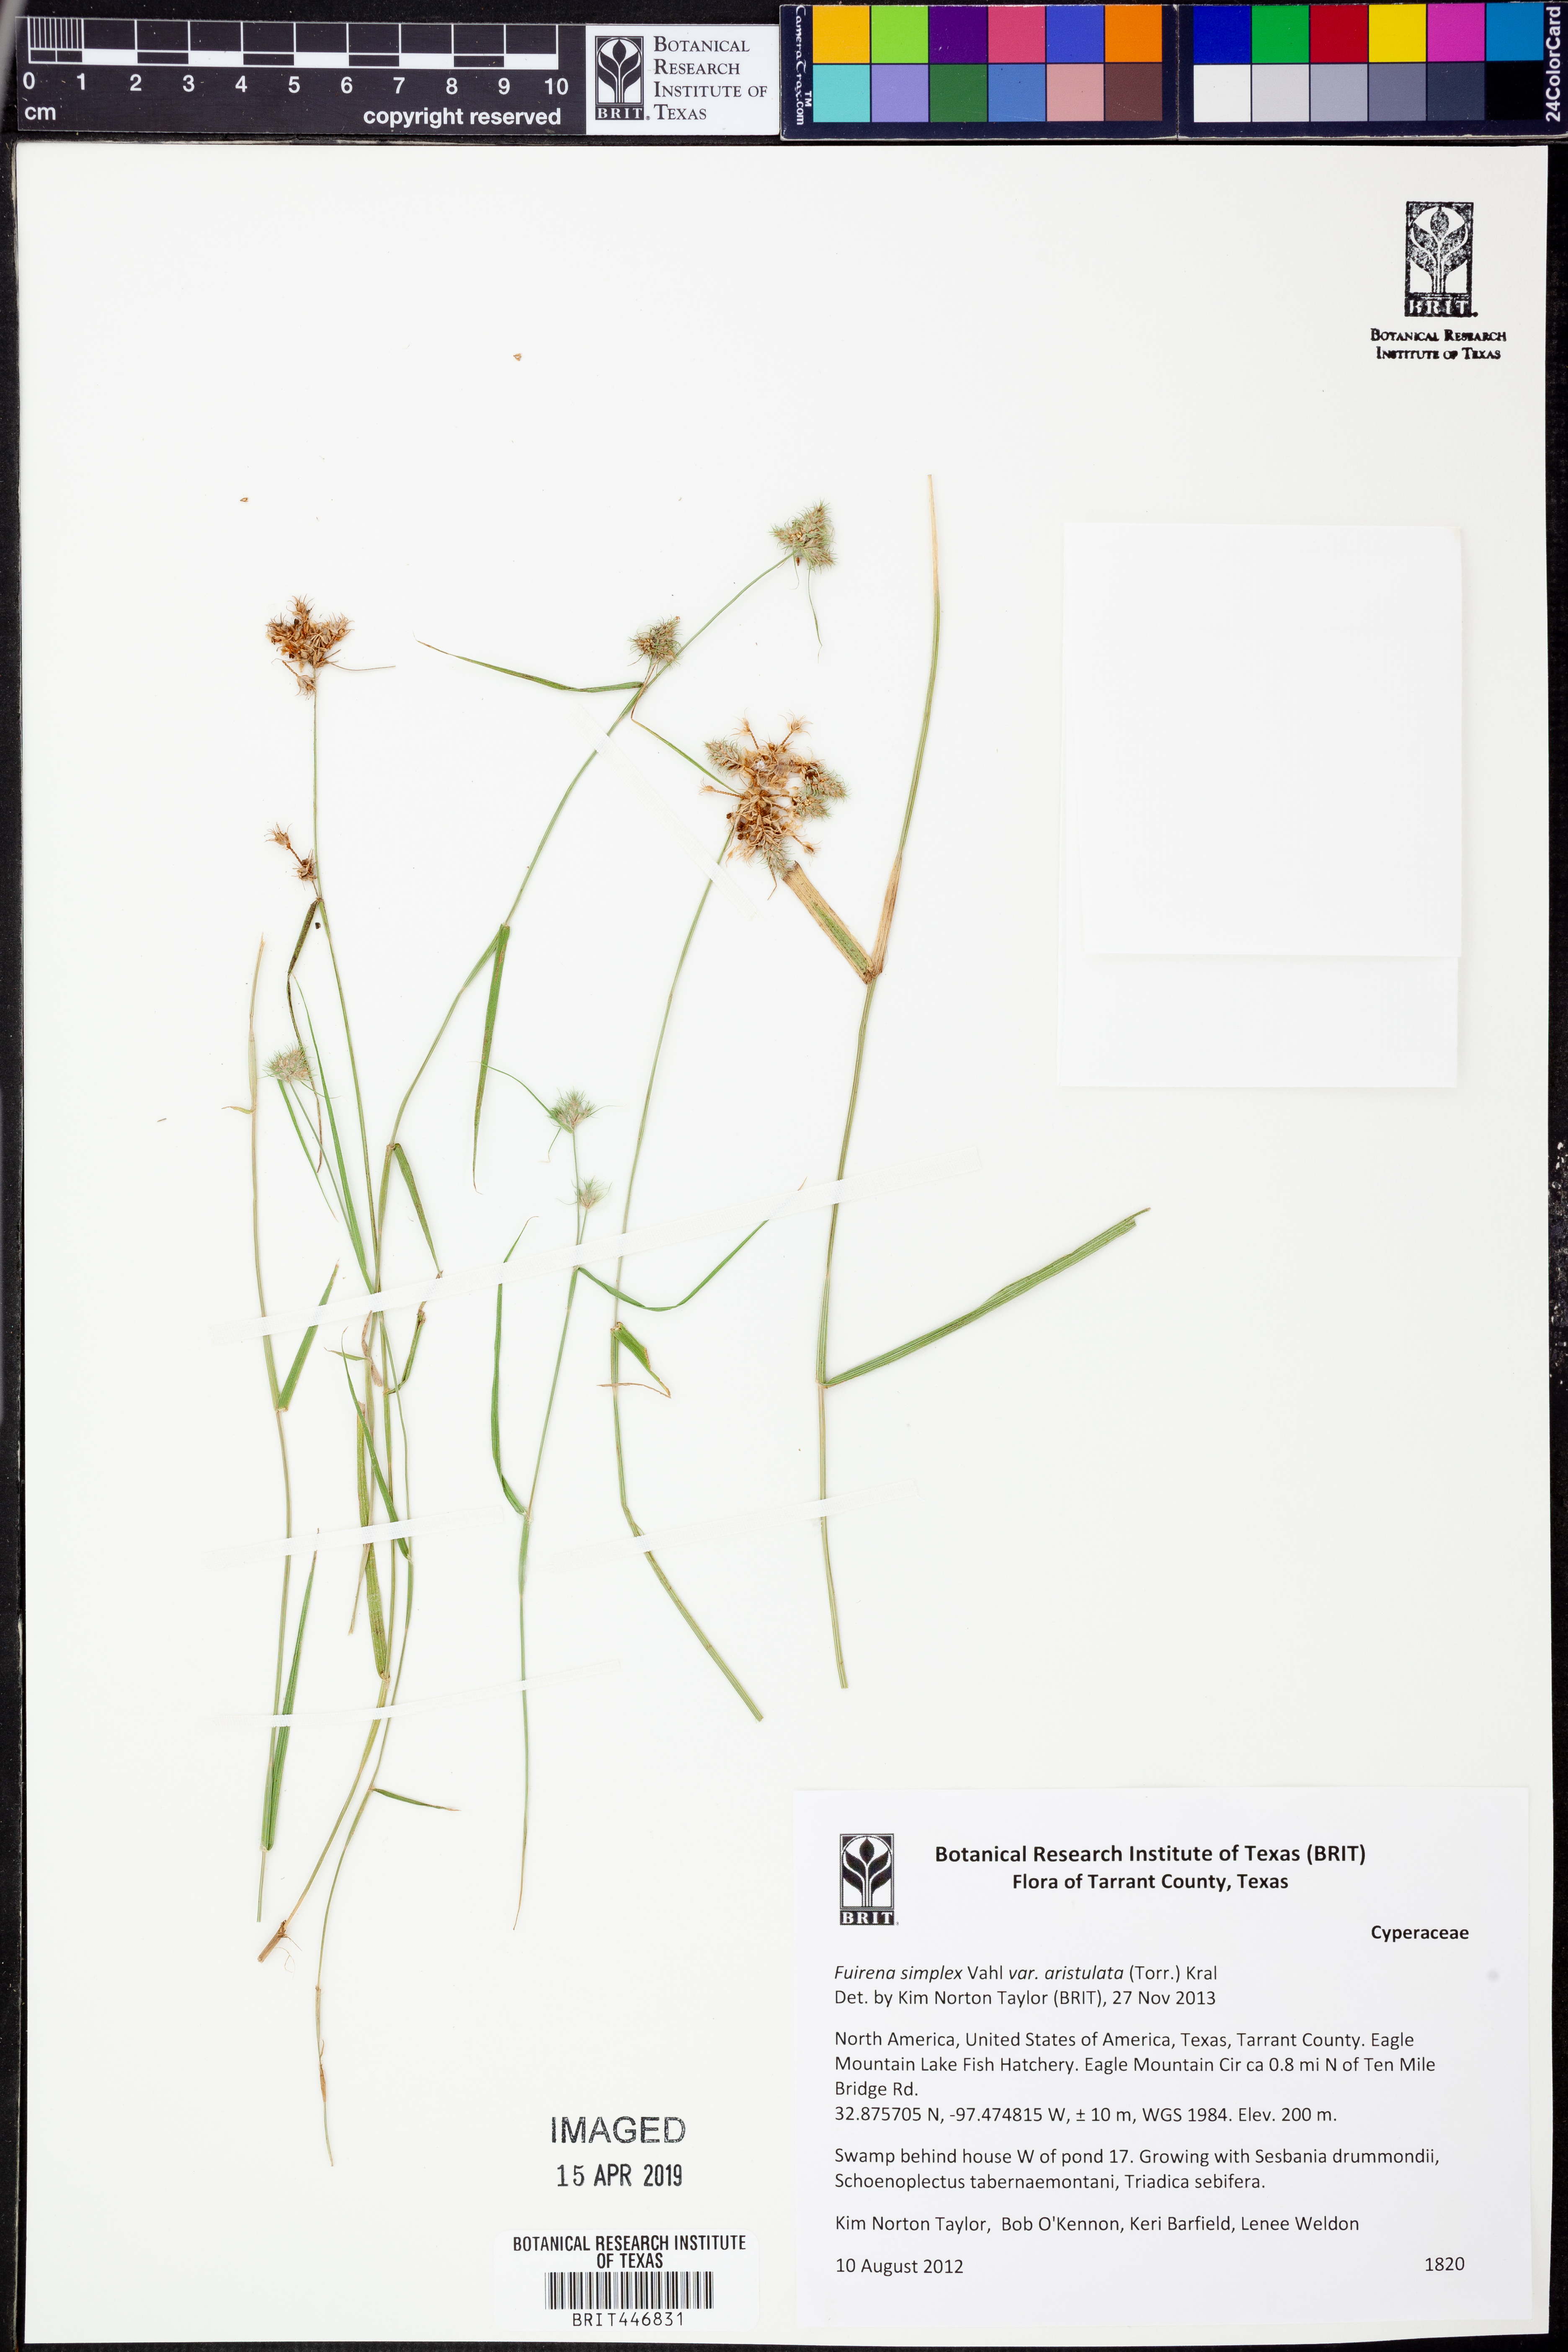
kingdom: Plantae
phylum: Tracheophyta
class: Liliopsida
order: Poales
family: Cyperaceae
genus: Fuirena
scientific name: Fuirena simplex
